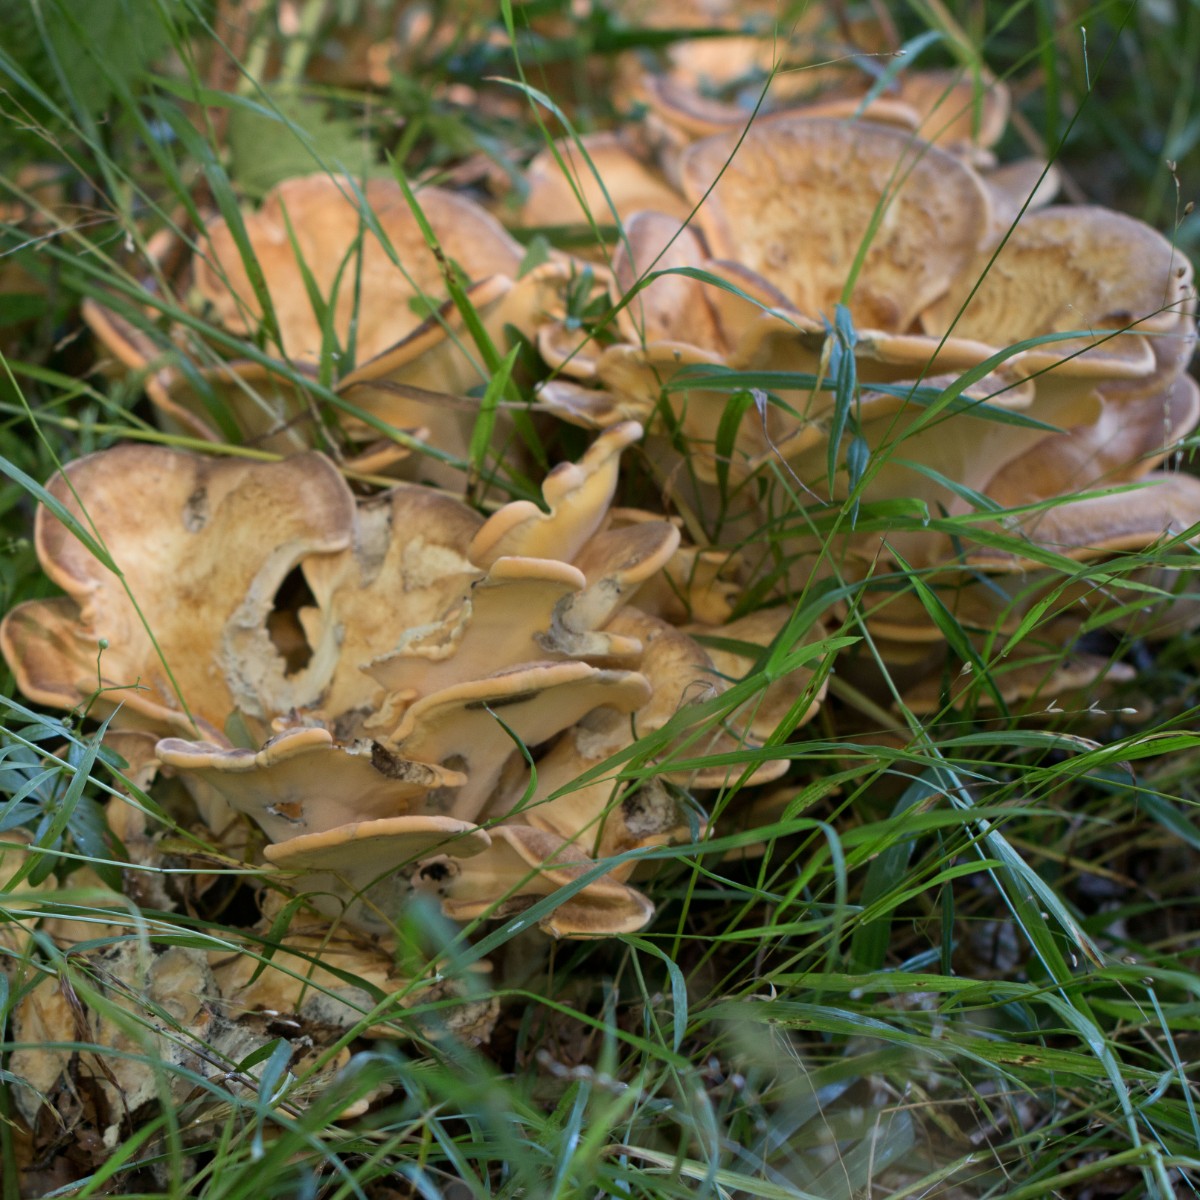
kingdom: Fungi
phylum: Basidiomycota
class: Agaricomycetes
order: Polyporales
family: Meripilaceae
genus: Meripilus
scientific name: Meripilus giganteus
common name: kæmpeporesvamp
